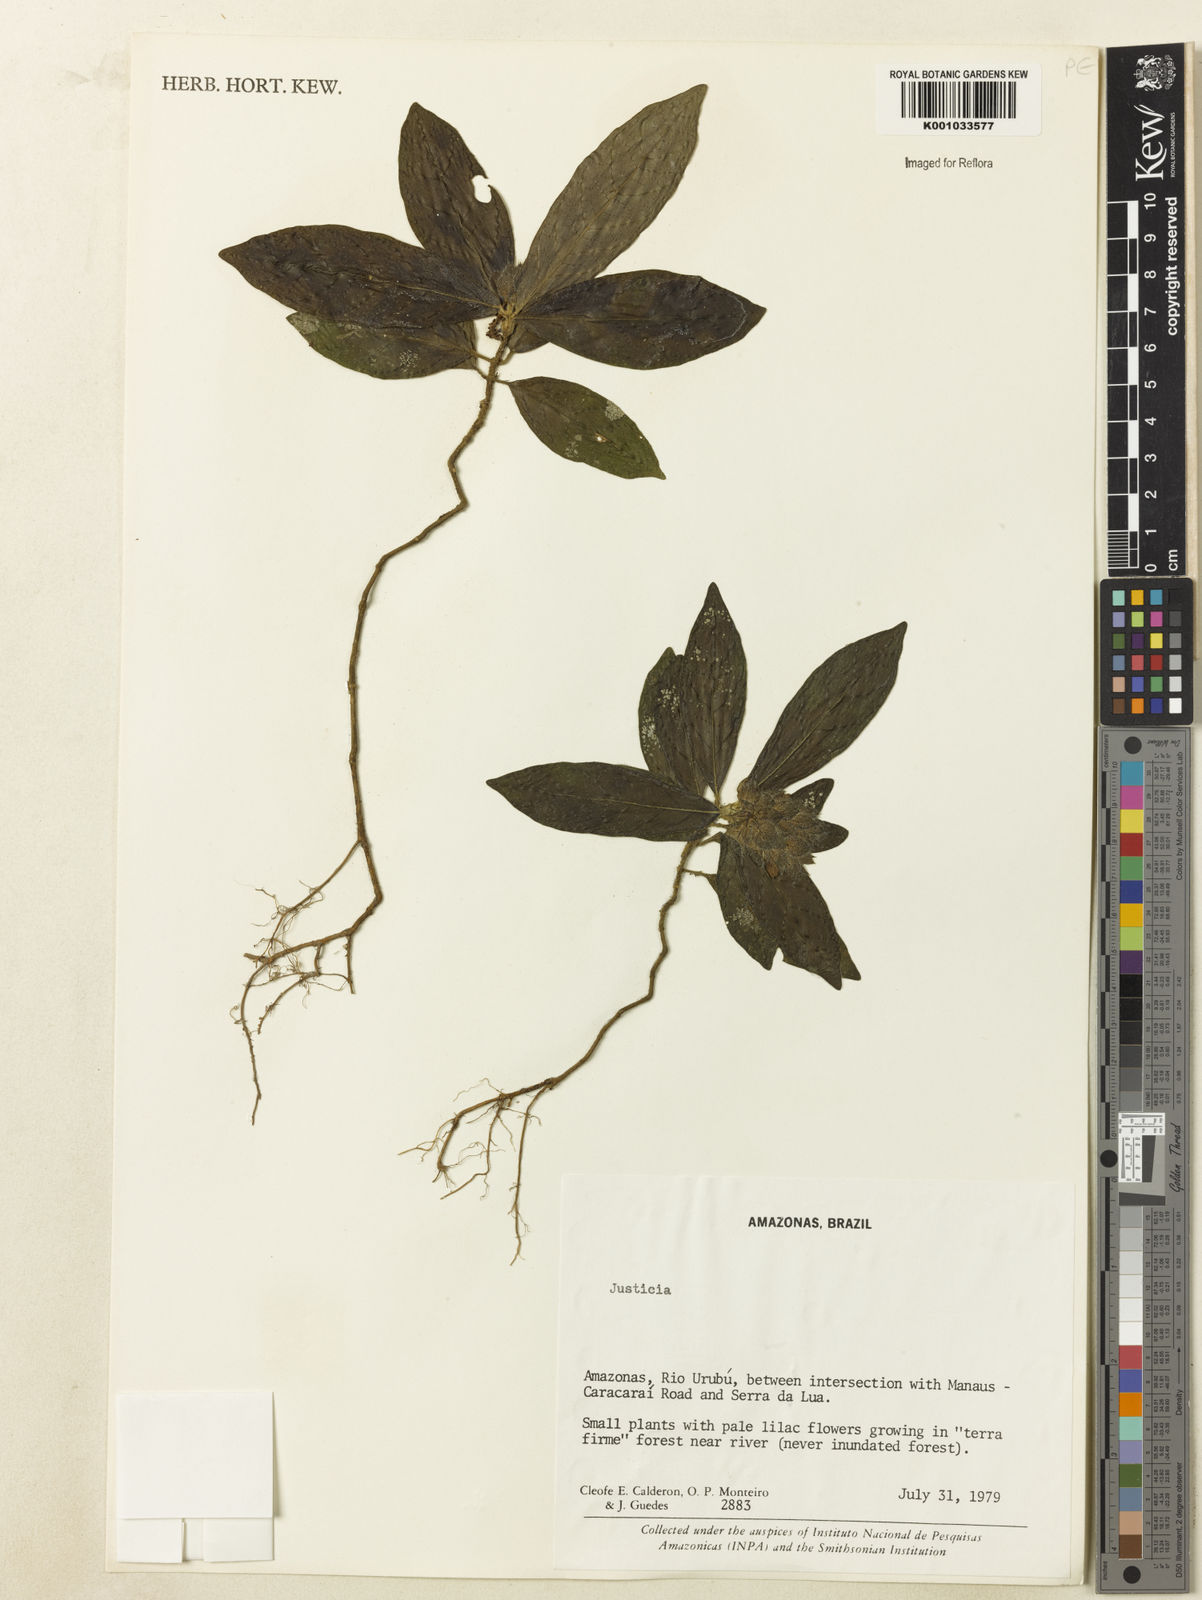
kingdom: Plantae
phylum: Tracheophyta
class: Magnoliopsida
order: Lamiales
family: Acanthaceae
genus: Justicia
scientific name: Justicia
